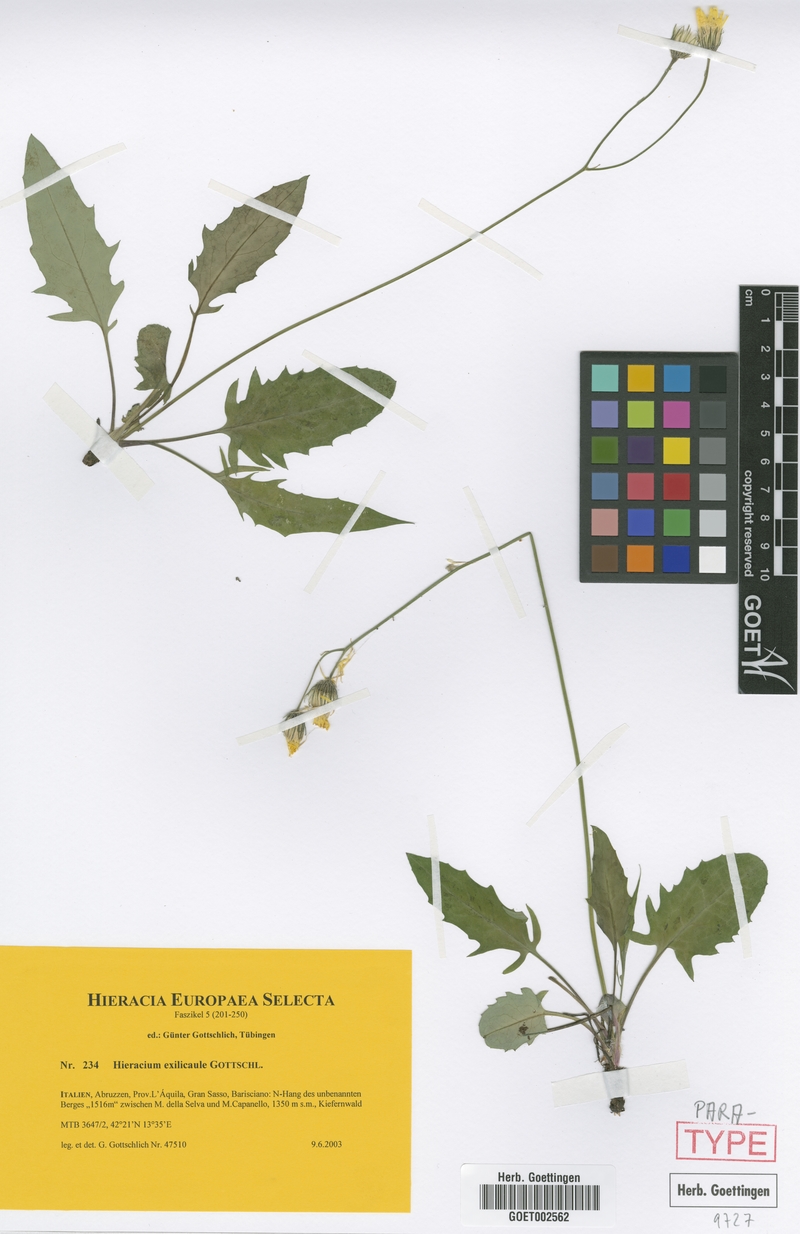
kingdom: Plantae
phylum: Tracheophyta
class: Magnoliopsida
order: Asterales
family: Asteraceae
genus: Hieracium
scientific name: Hieracium exilicaule
